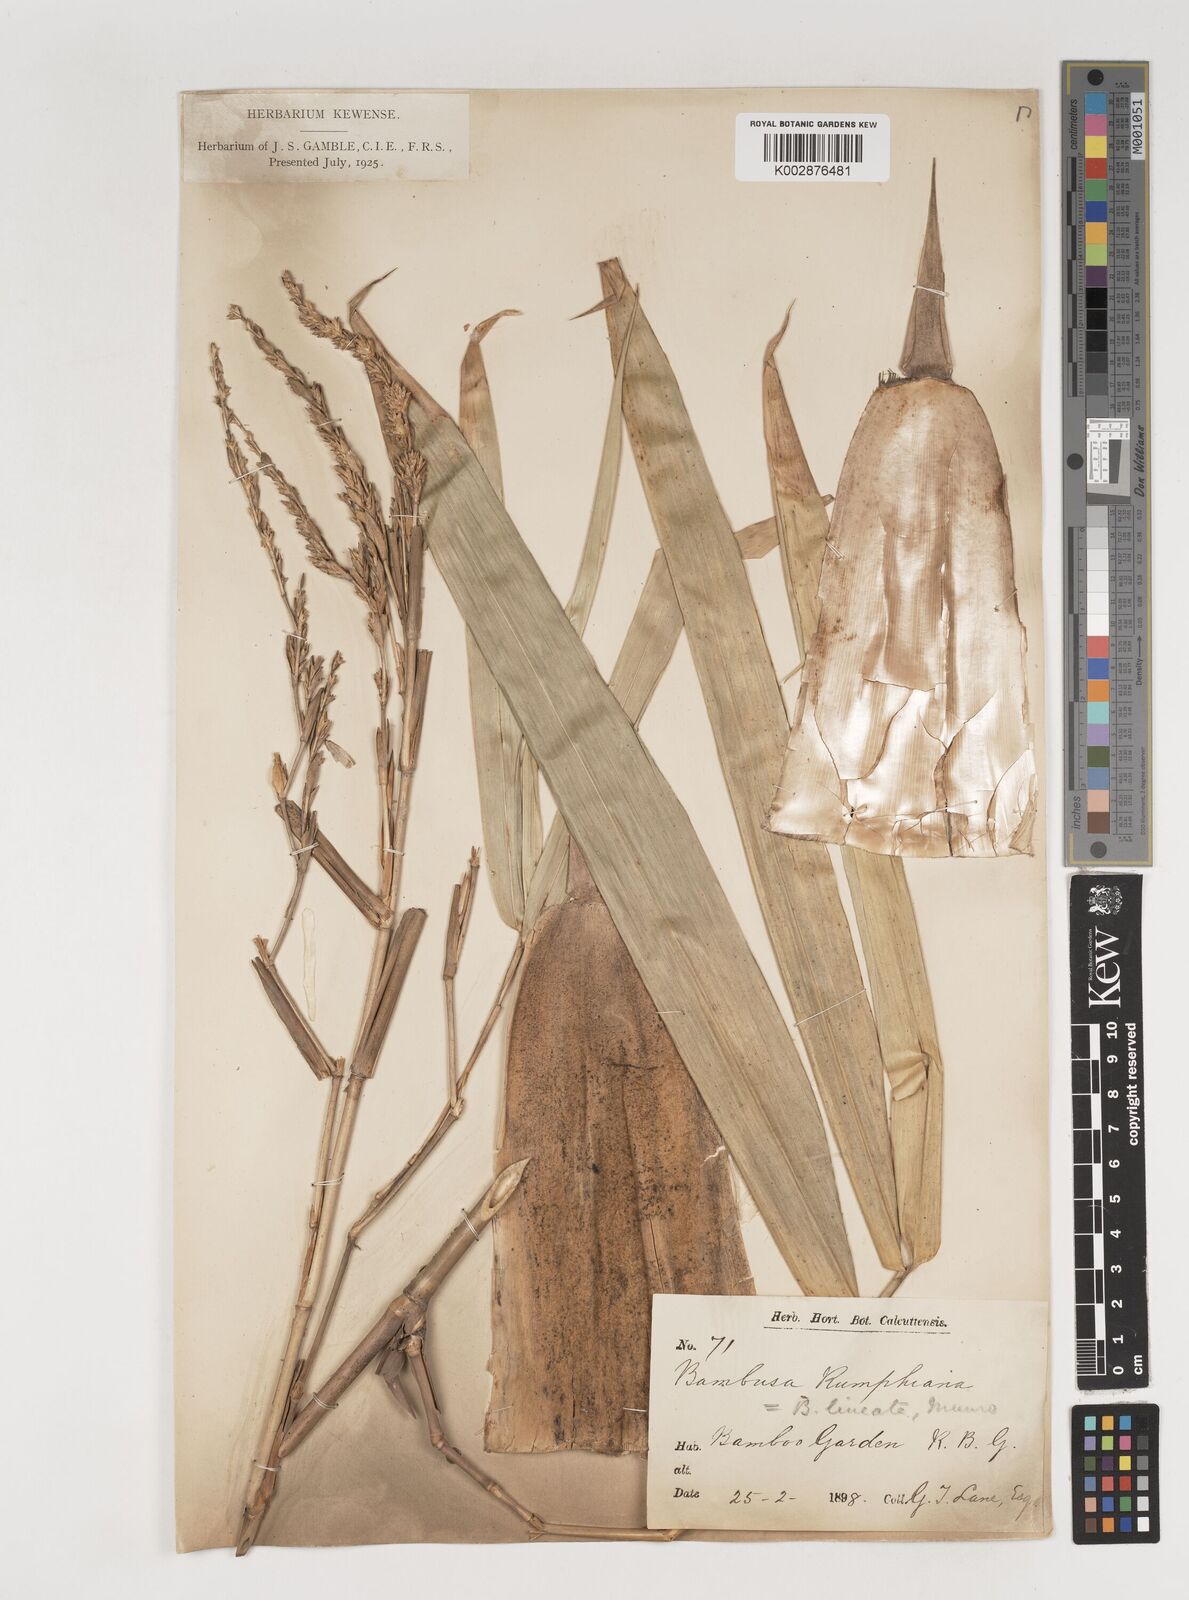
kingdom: Plantae
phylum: Tracheophyta
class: Liliopsida
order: Poales
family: Poaceae
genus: Neololeba
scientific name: Neololeba amahussana
